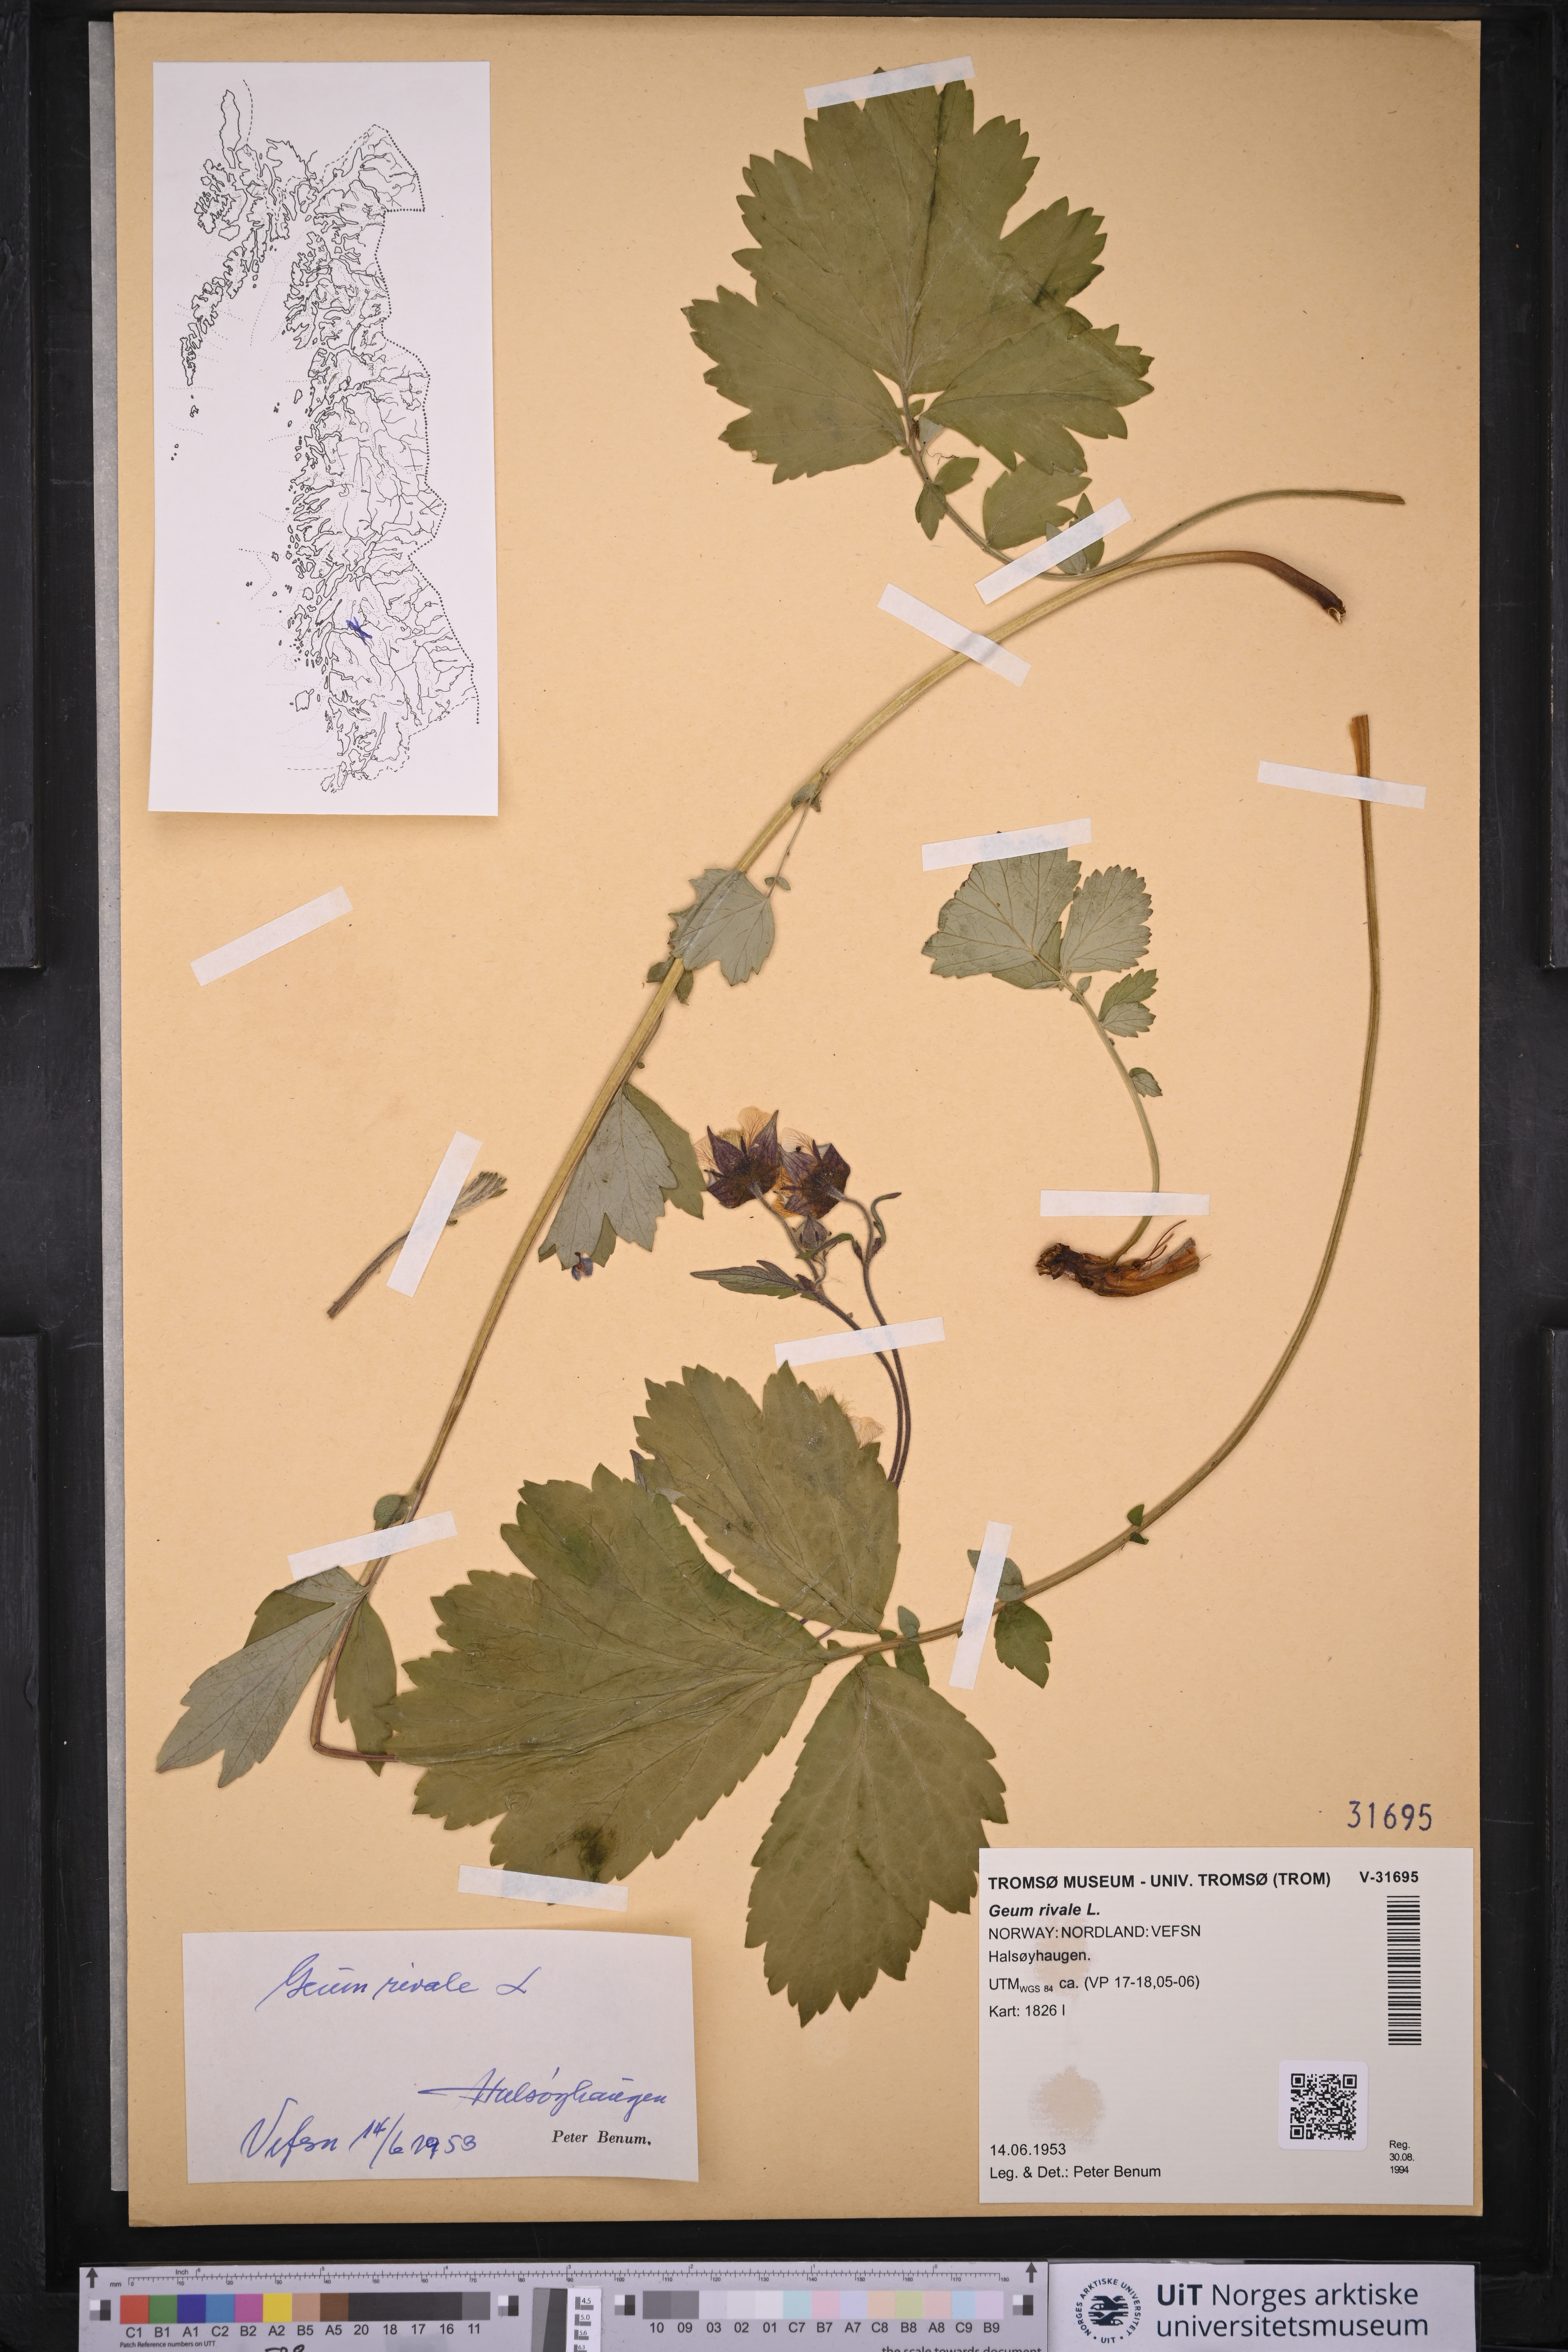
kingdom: Plantae
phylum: Tracheophyta
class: Magnoliopsida
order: Rosales
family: Rosaceae
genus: Geum
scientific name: Geum rivale
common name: Water avens
